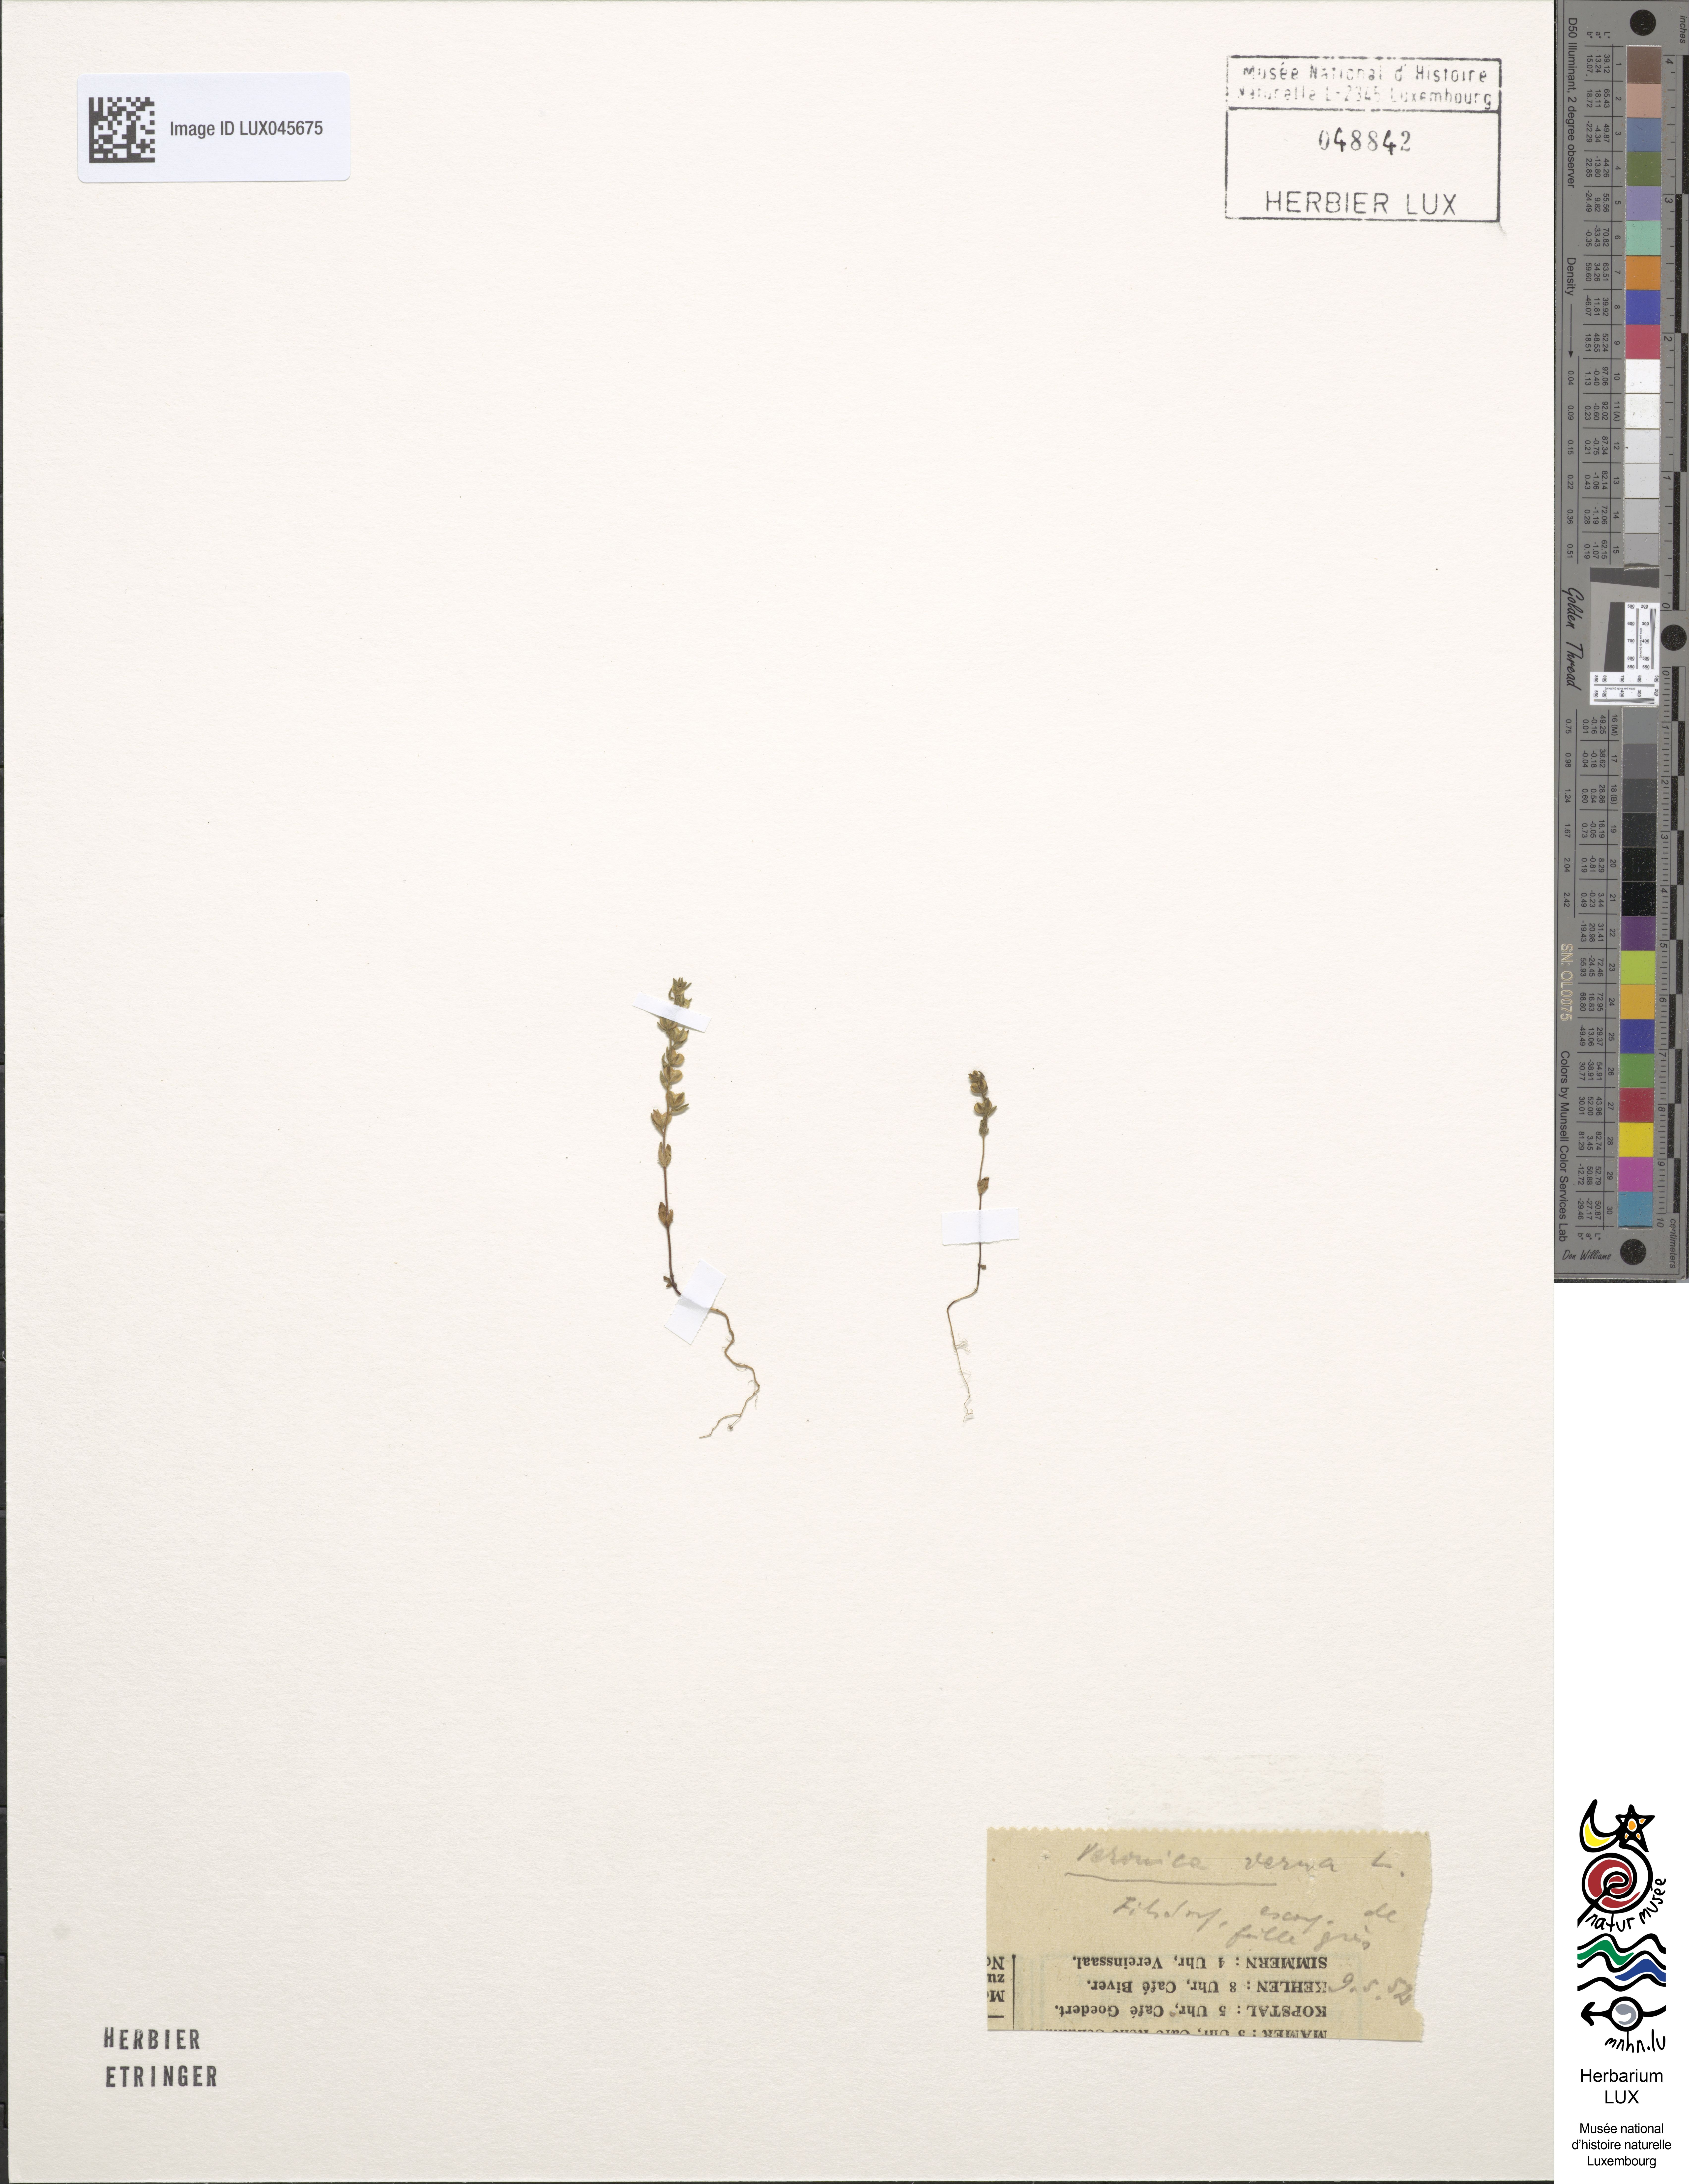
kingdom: Plantae
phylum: Tracheophyta
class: Magnoliopsida
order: Lamiales
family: Plantaginaceae
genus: Veronica
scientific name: Veronica verna
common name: Spring speedwell
